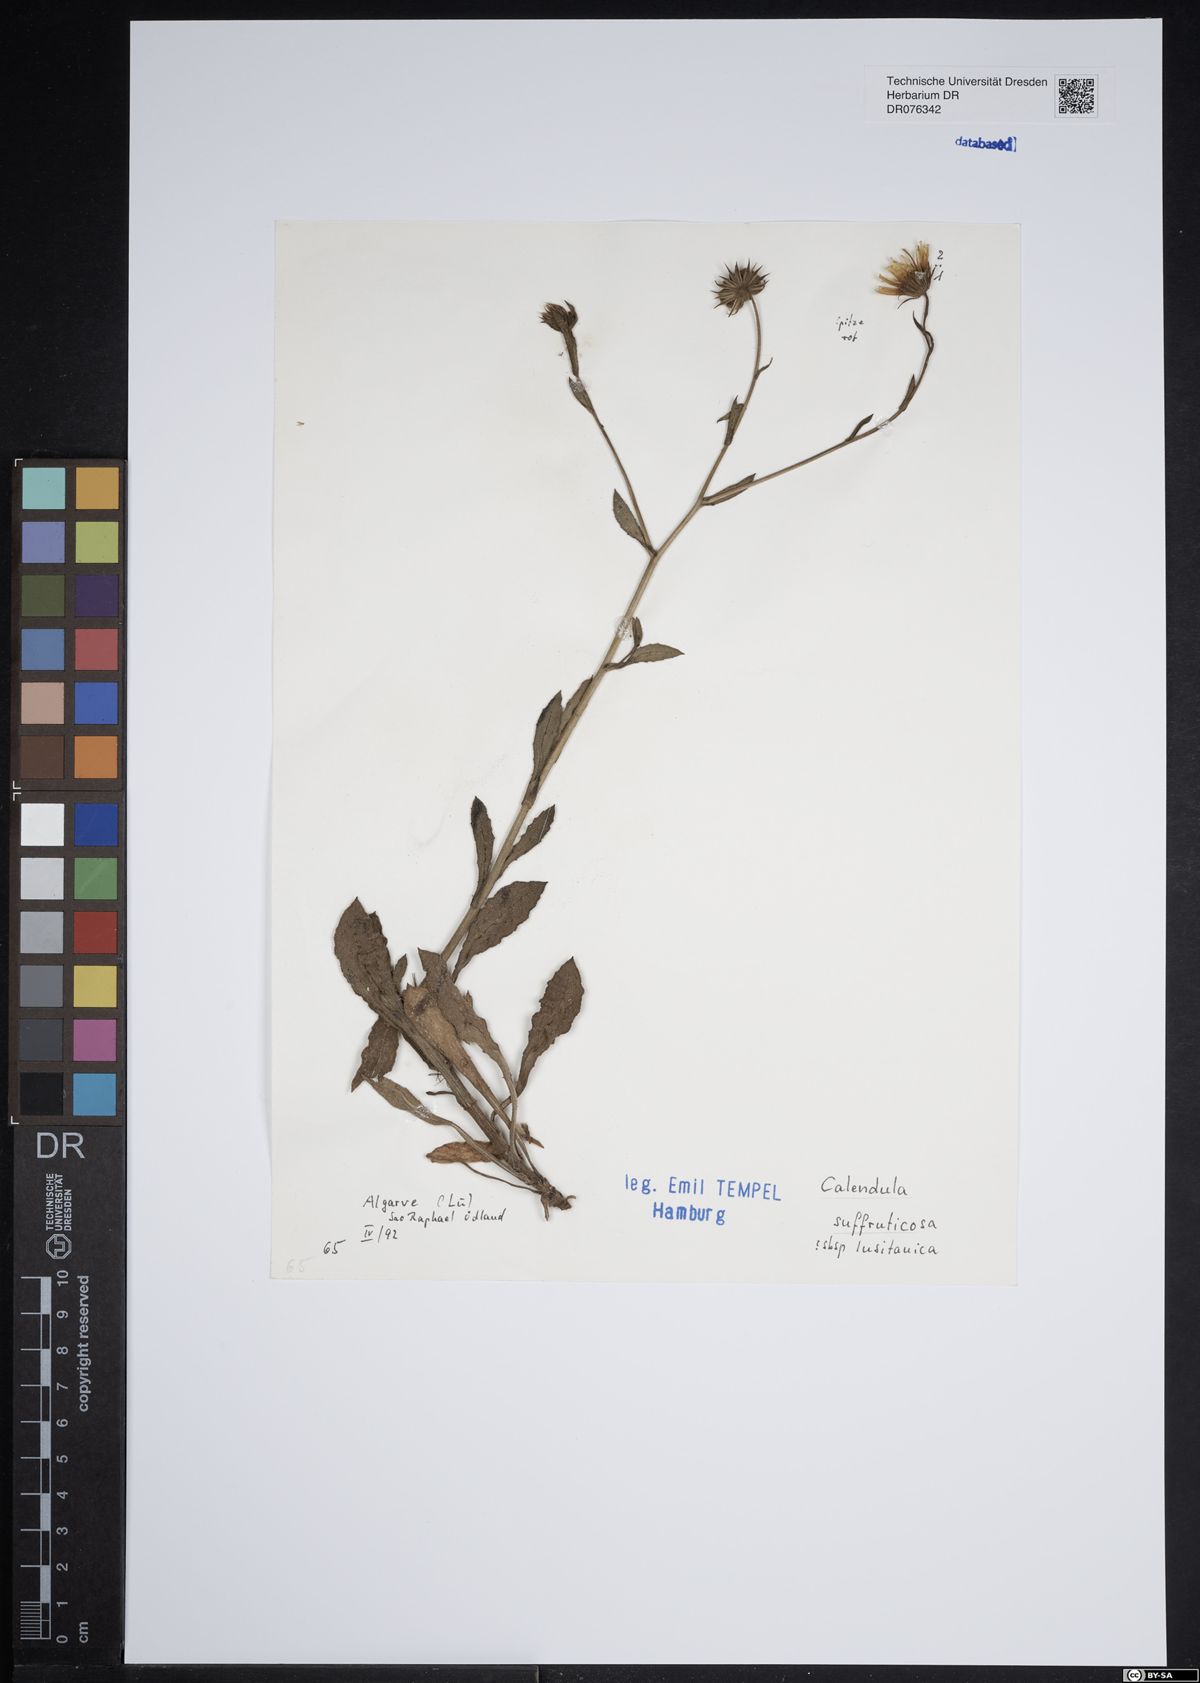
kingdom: Plantae
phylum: Tracheophyta
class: Magnoliopsida
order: Asterales
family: Asteraceae
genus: Calendula
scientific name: Calendula suffruticosa
